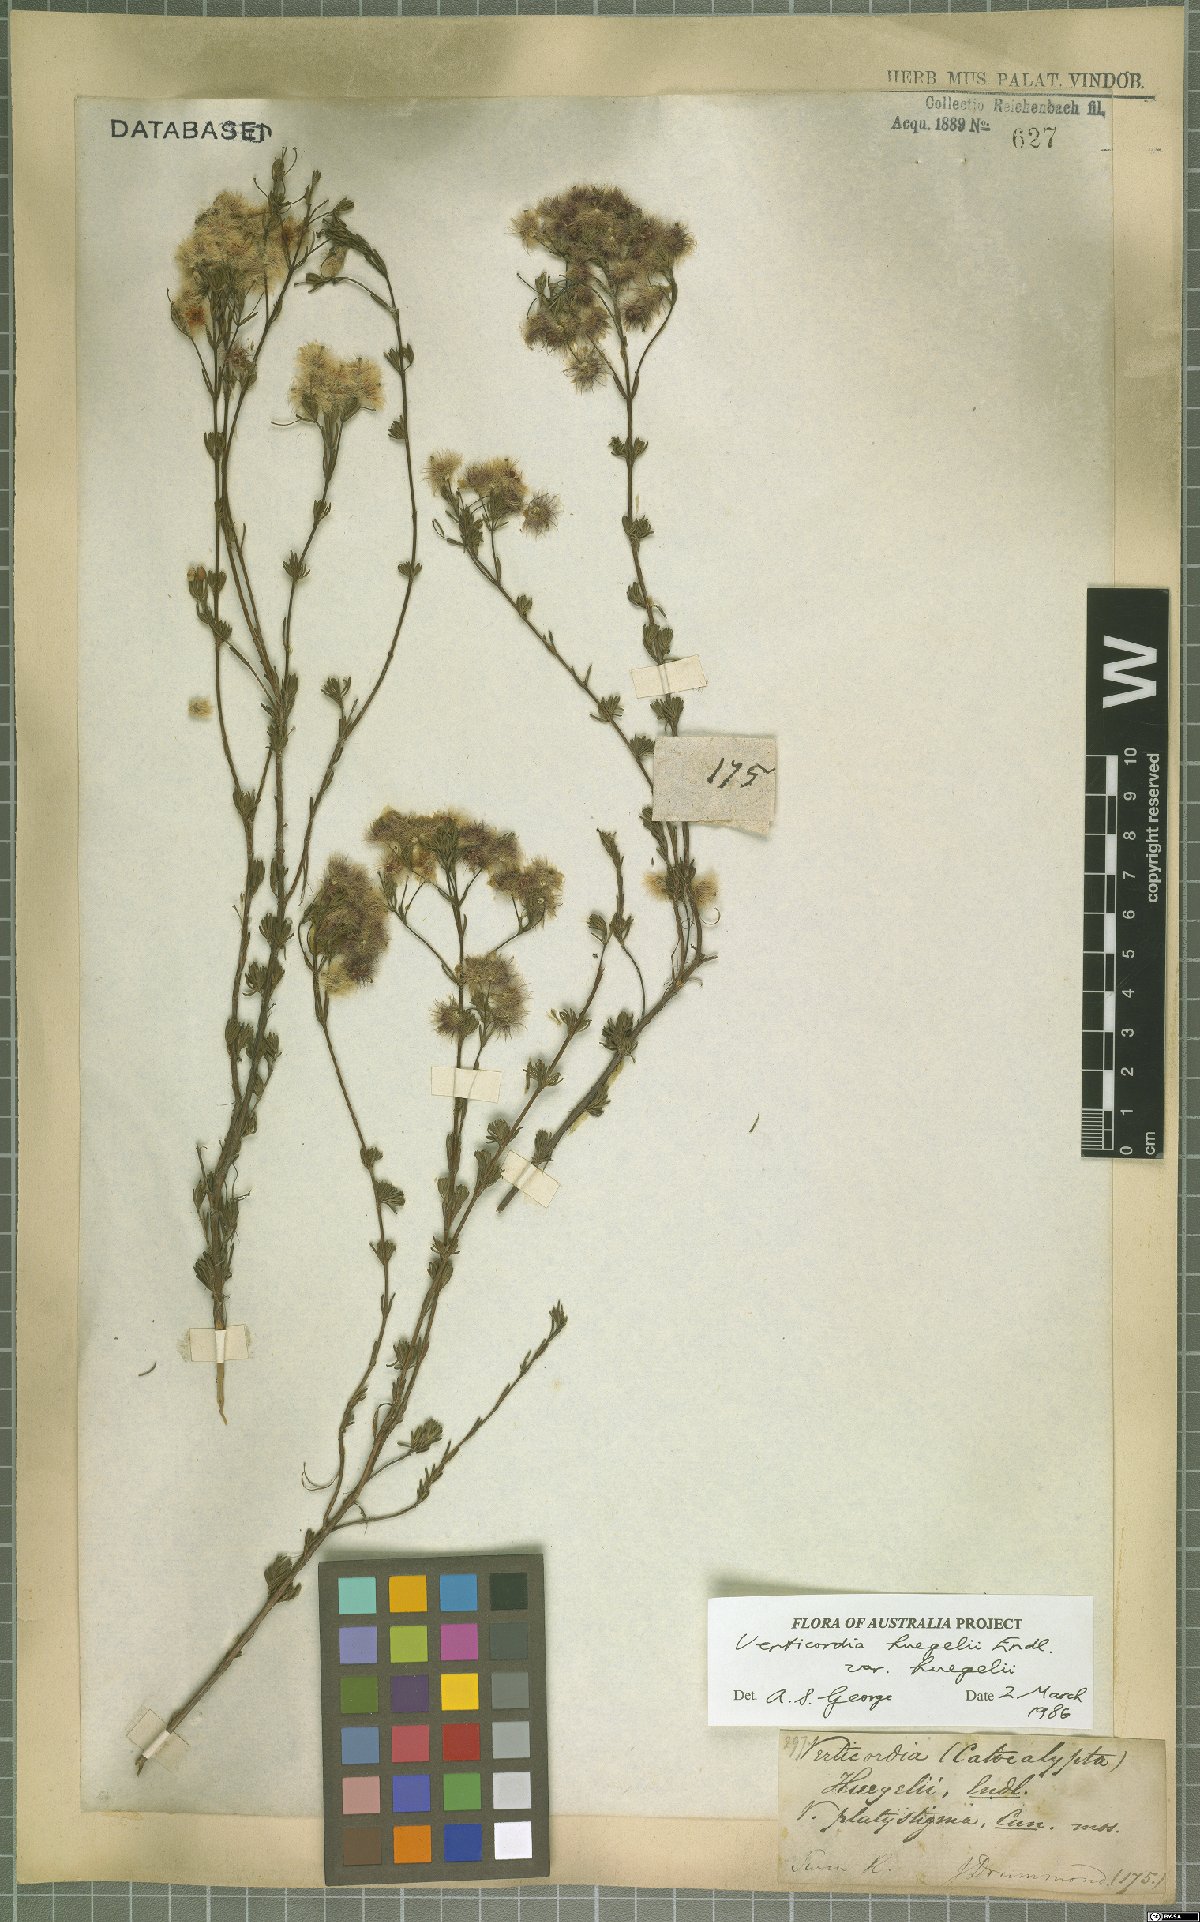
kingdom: Plantae
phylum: Tracheophyta
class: Magnoliopsida
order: Myrtales
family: Myrtaceae
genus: Verticordia
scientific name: Verticordia huegelii
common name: Variegate feather-flower
